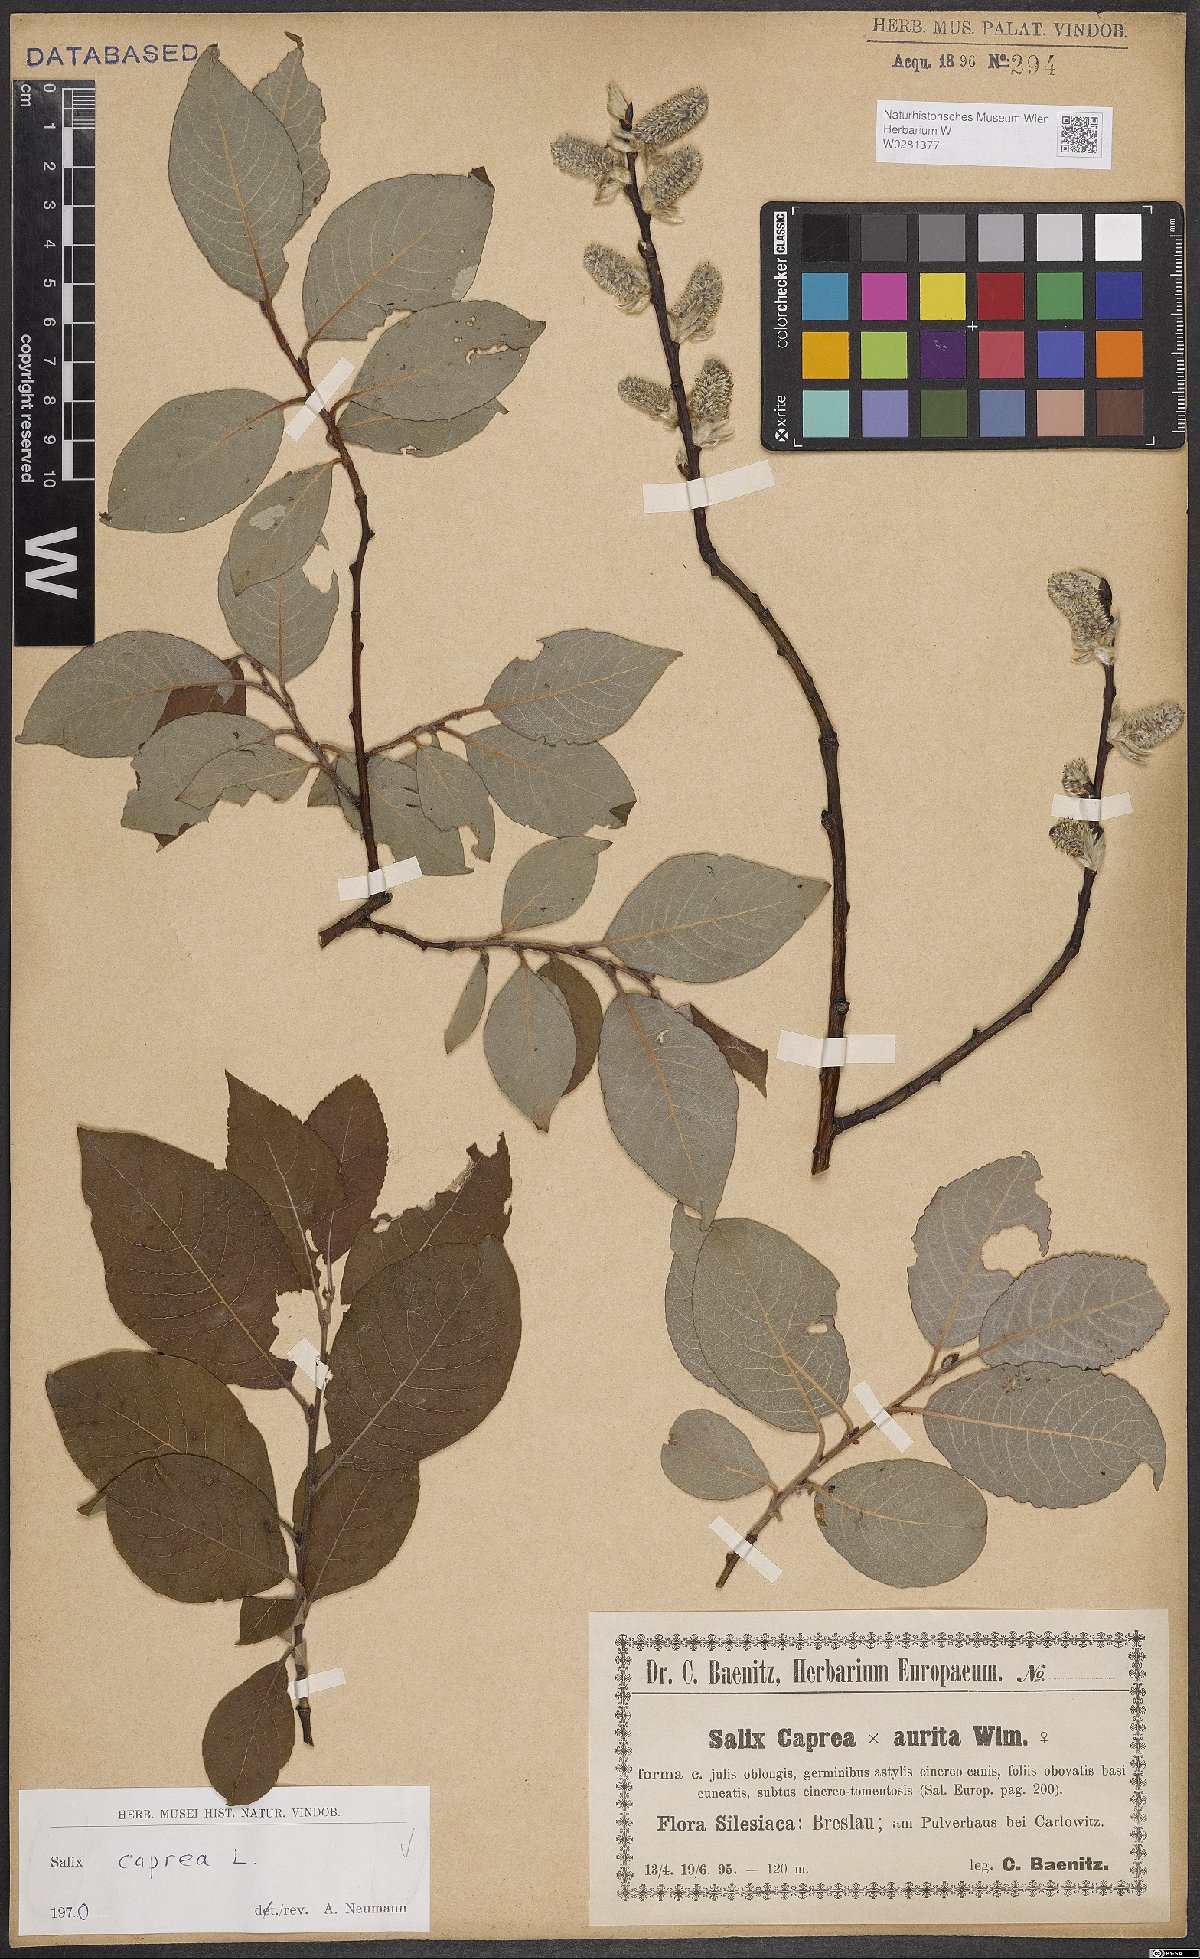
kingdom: Plantae
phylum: Tracheophyta
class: Magnoliopsida
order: Malpighiales
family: Salicaceae
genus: Salix
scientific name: Salix caprea
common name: Goat willow
